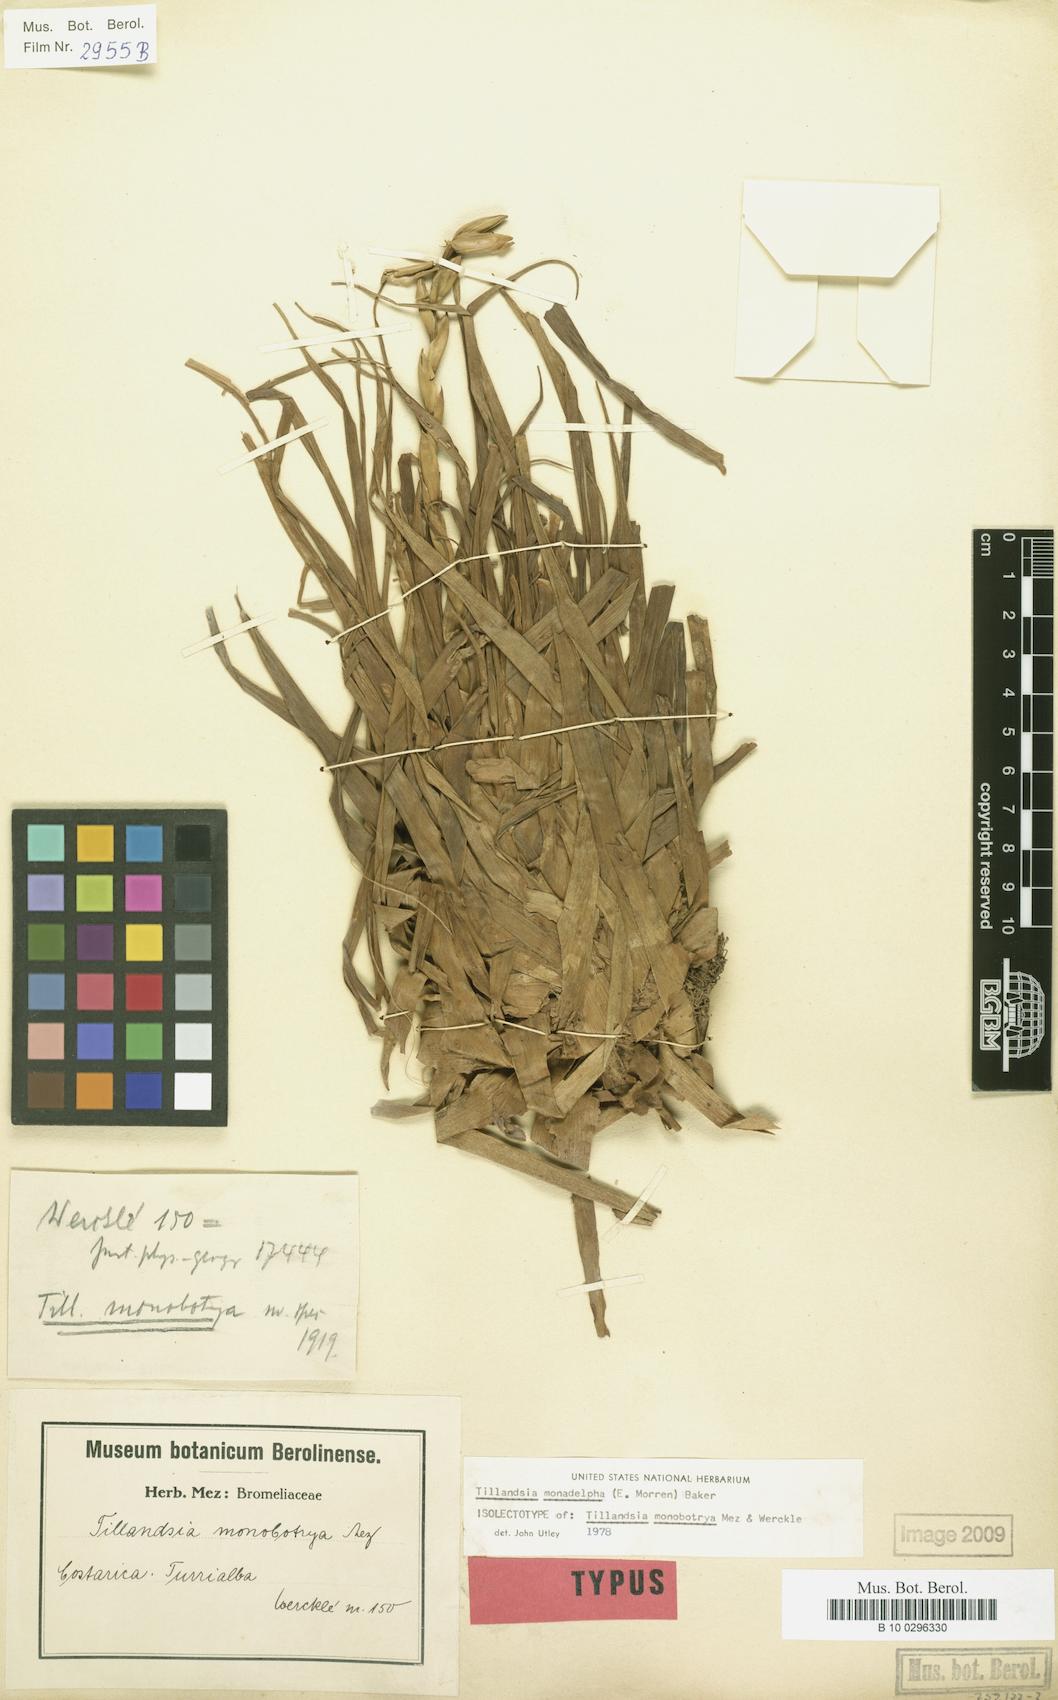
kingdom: Plantae
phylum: Tracheophyta
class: Liliopsida
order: Poales
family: Bromeliaceae
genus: Lemeltonia
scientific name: Lemeltonia monadelpha
